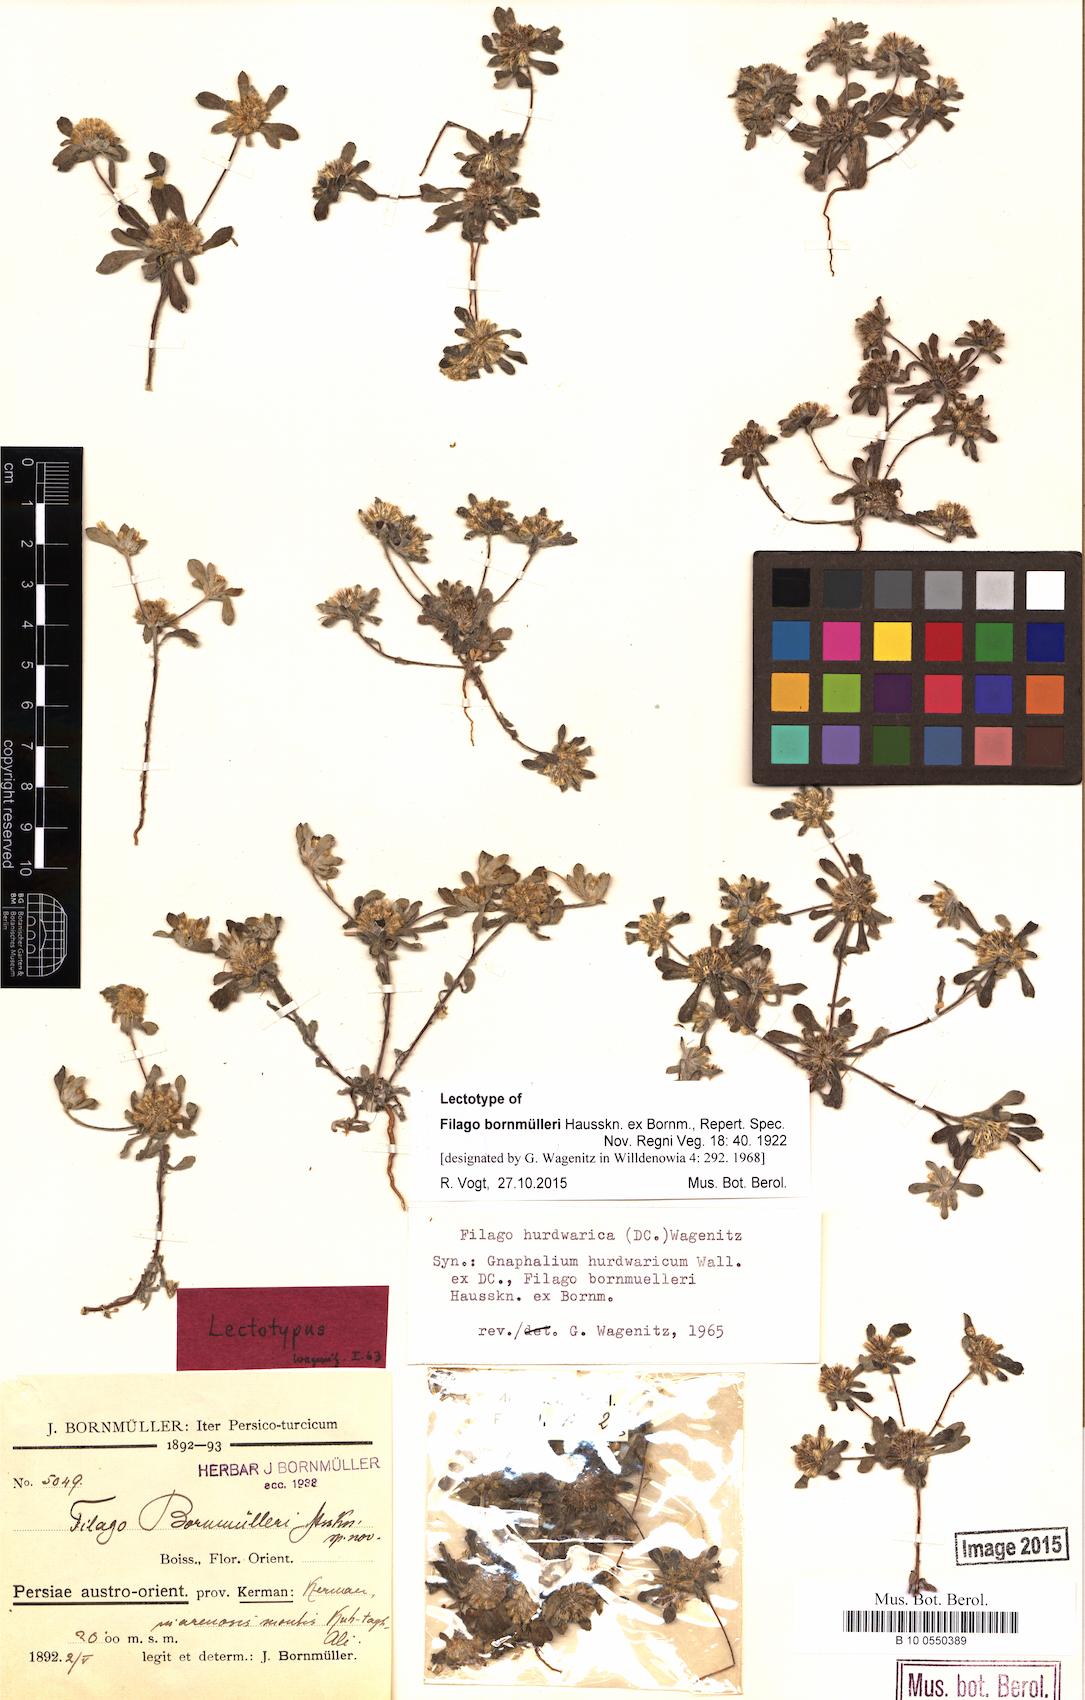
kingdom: Plantae
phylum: Tracheophyta
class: Magnoliopsida
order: Asterales
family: Asteraceae
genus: Filago
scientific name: Filago hurdwarica
